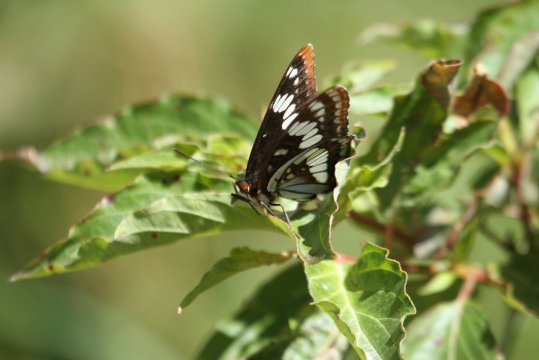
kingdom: Animalia
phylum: Arthropoda
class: Insecta
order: Lepidoptera
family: Nymphalidae
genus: Limenitis
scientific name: Limenitis lorquini
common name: Lorquin's Admiral
